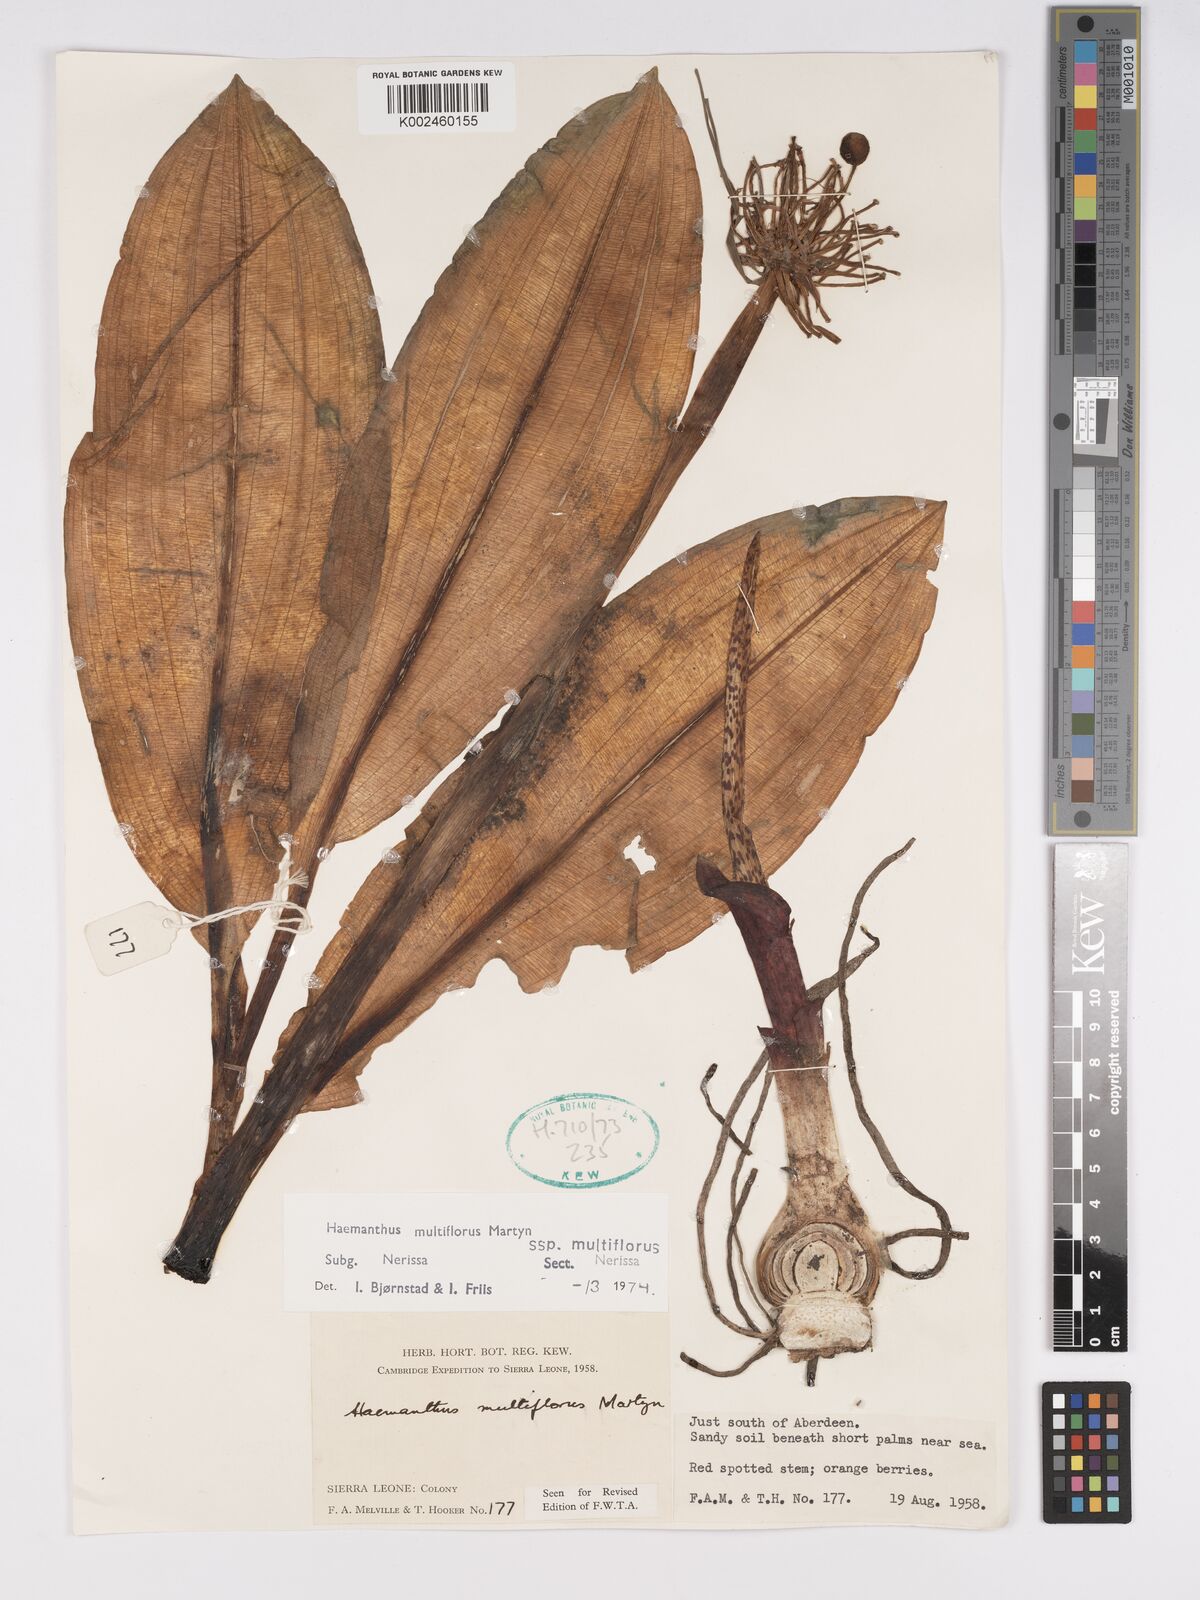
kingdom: Plantae
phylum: Tracheophyta
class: Liliopsida
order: Asparagales
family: Amaryllidaceae
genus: Scadoxus
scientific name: Scadoxus multiflorus
